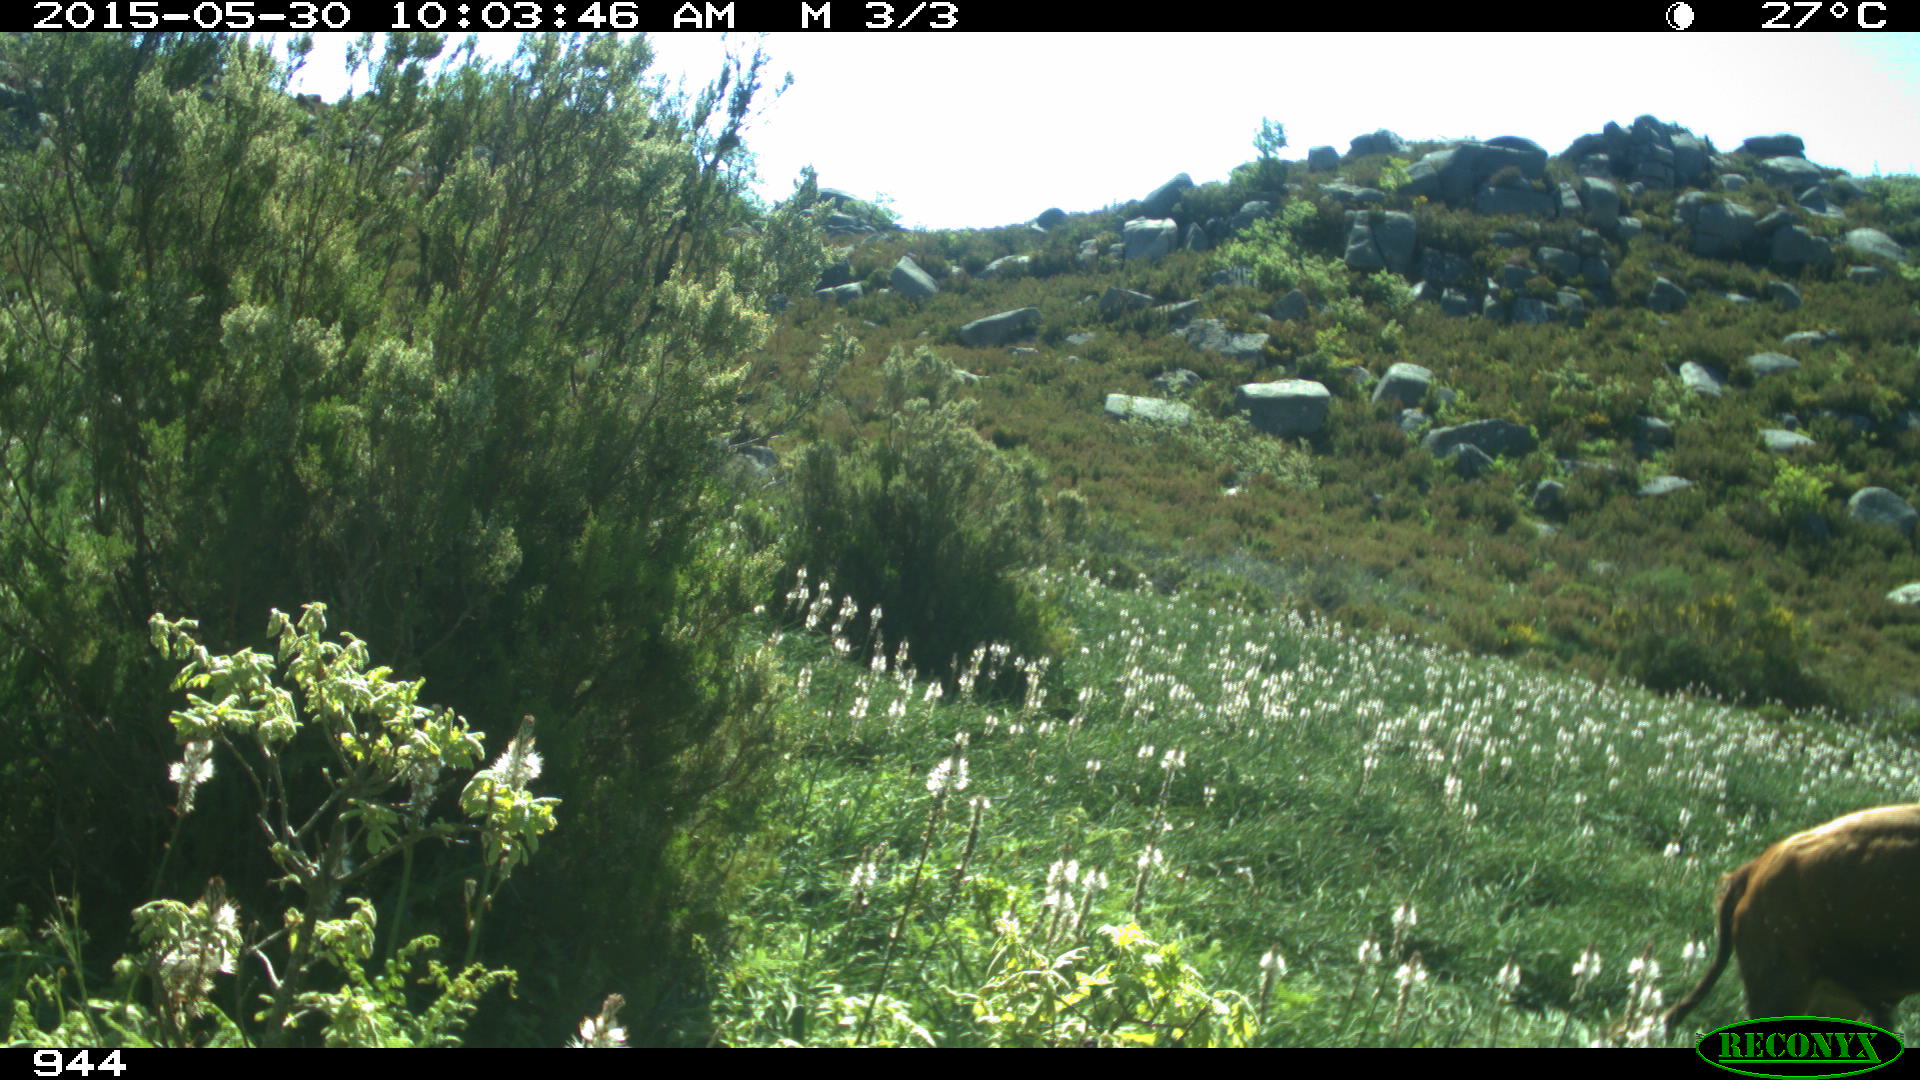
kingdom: Animalia
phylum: Chordata
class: Mammalia
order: Artiodactyla
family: Bovidae
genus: Bos
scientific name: Bos taurus
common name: Domesticated cattle
